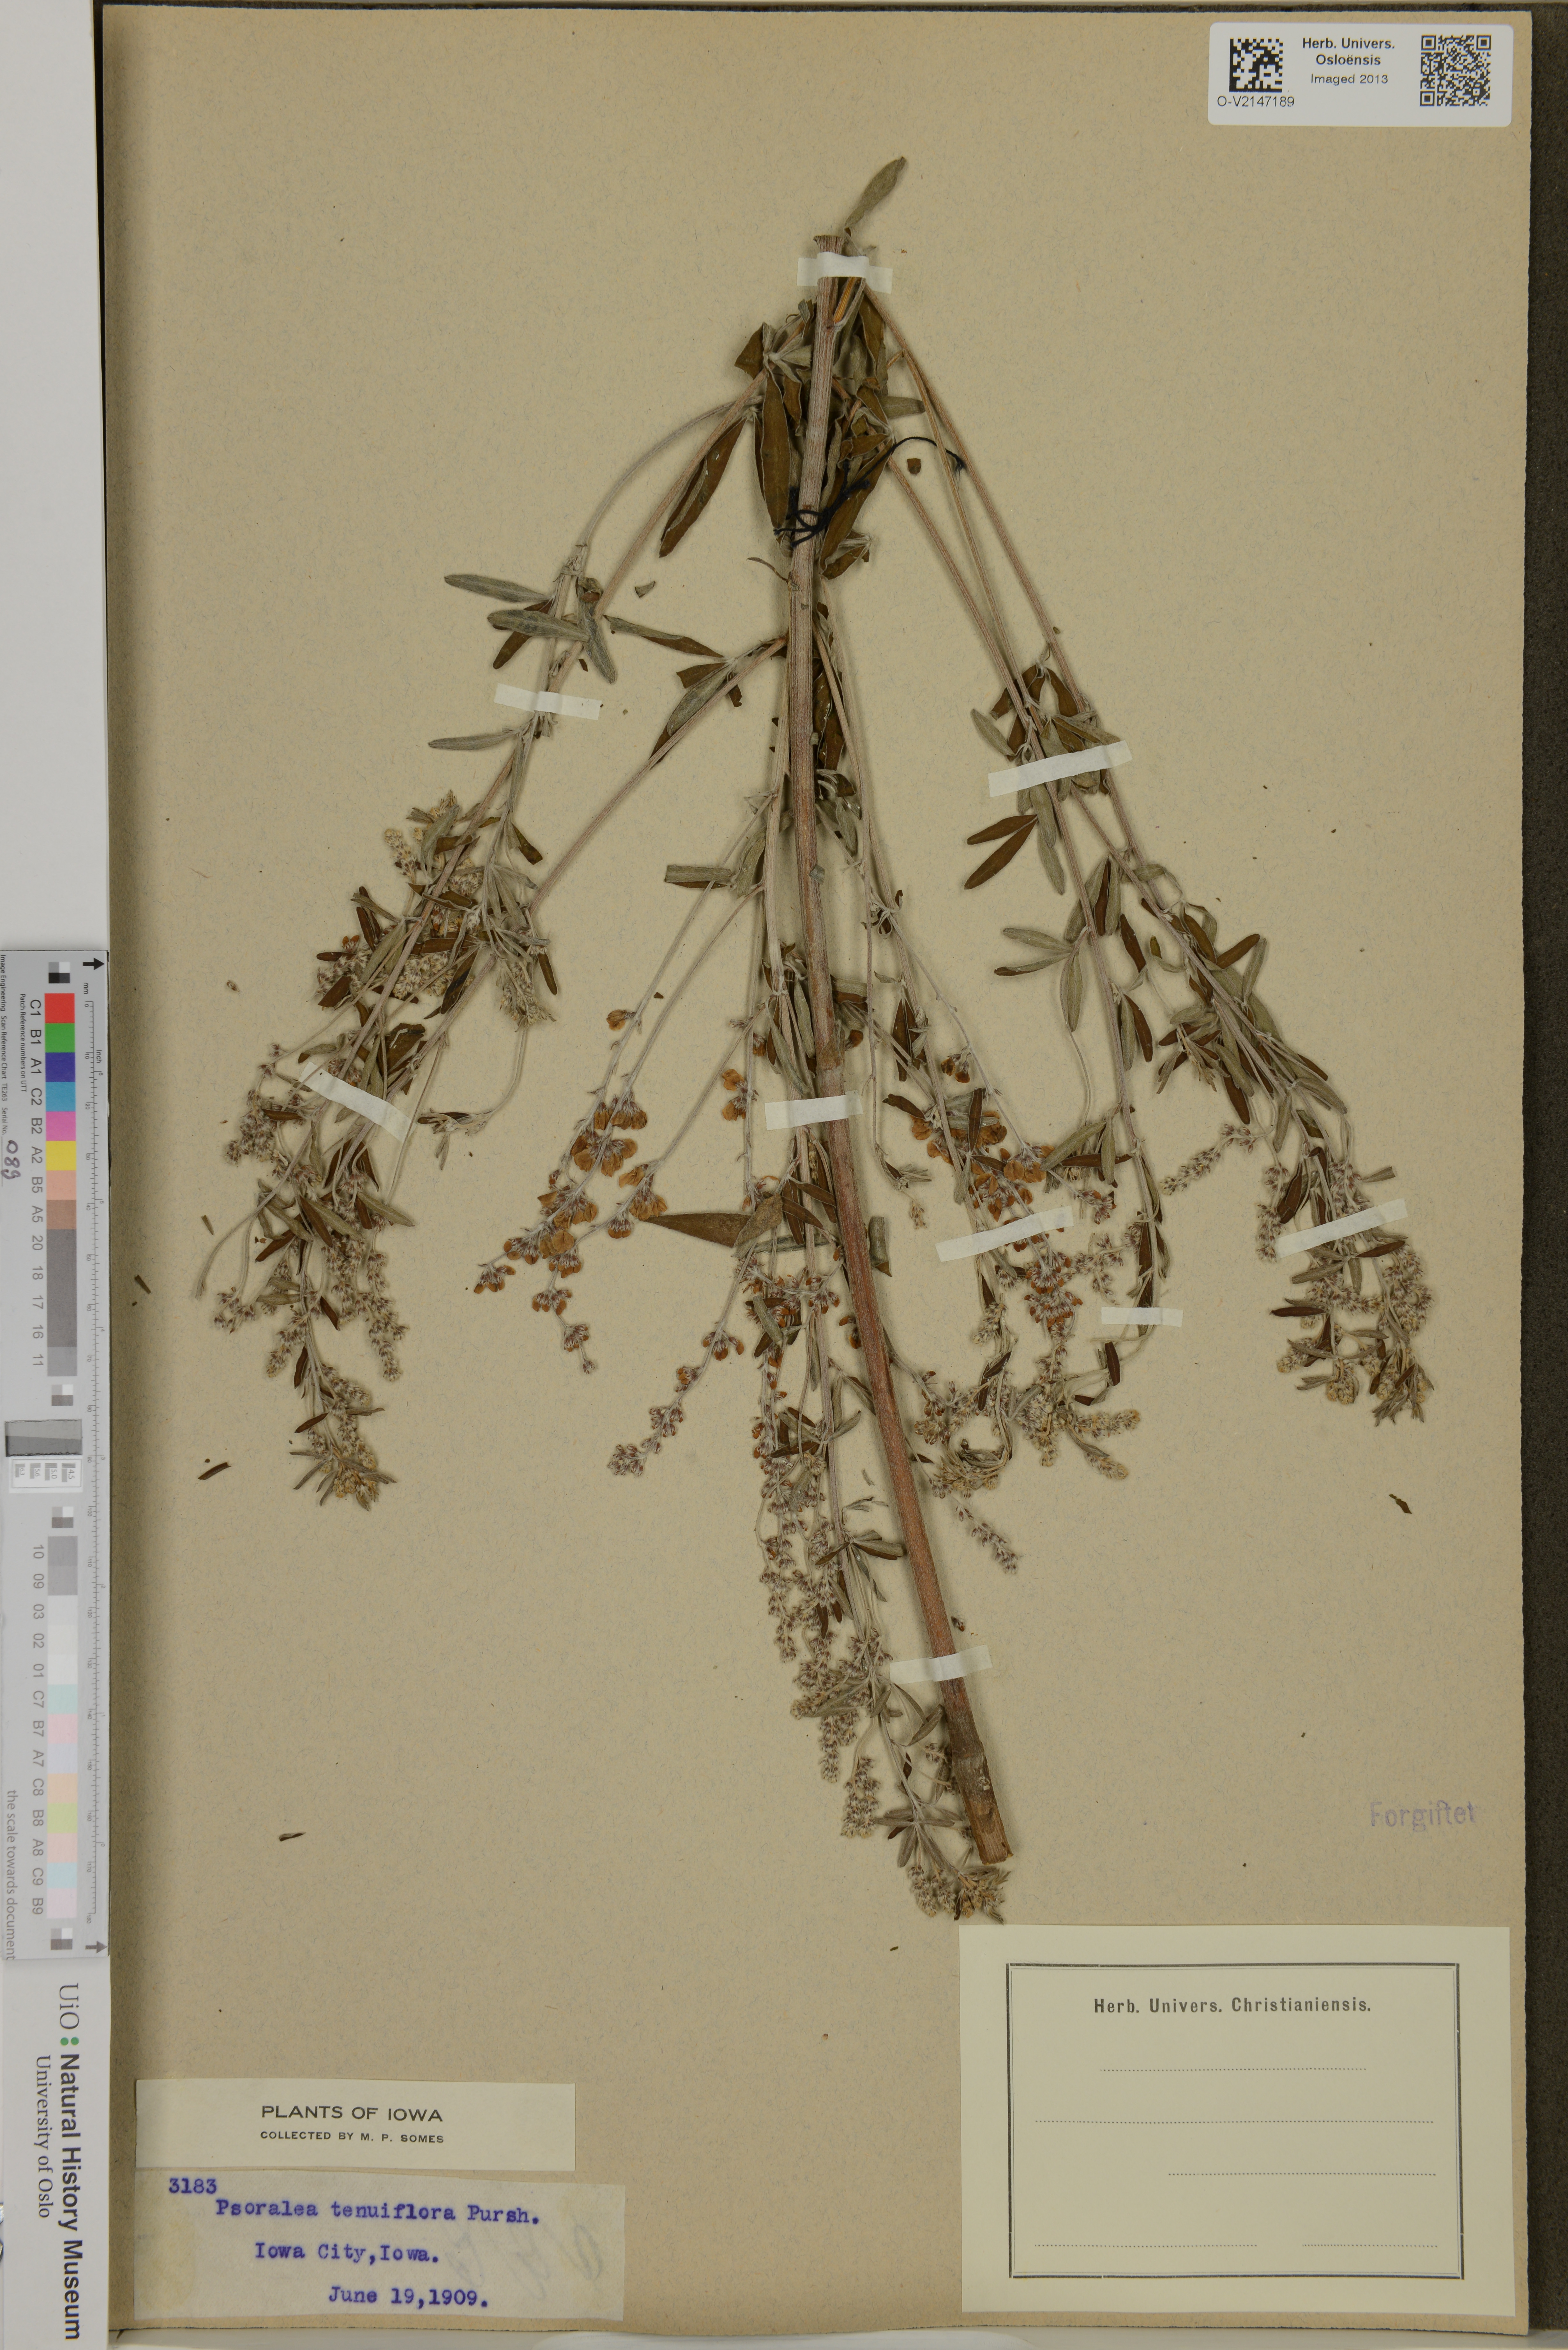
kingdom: Plantae
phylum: Tracheophyta
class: Magnoliopsida
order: Fabales
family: Fabaceae
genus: Pediomelum
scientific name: Pediomelum tenuiflorum
